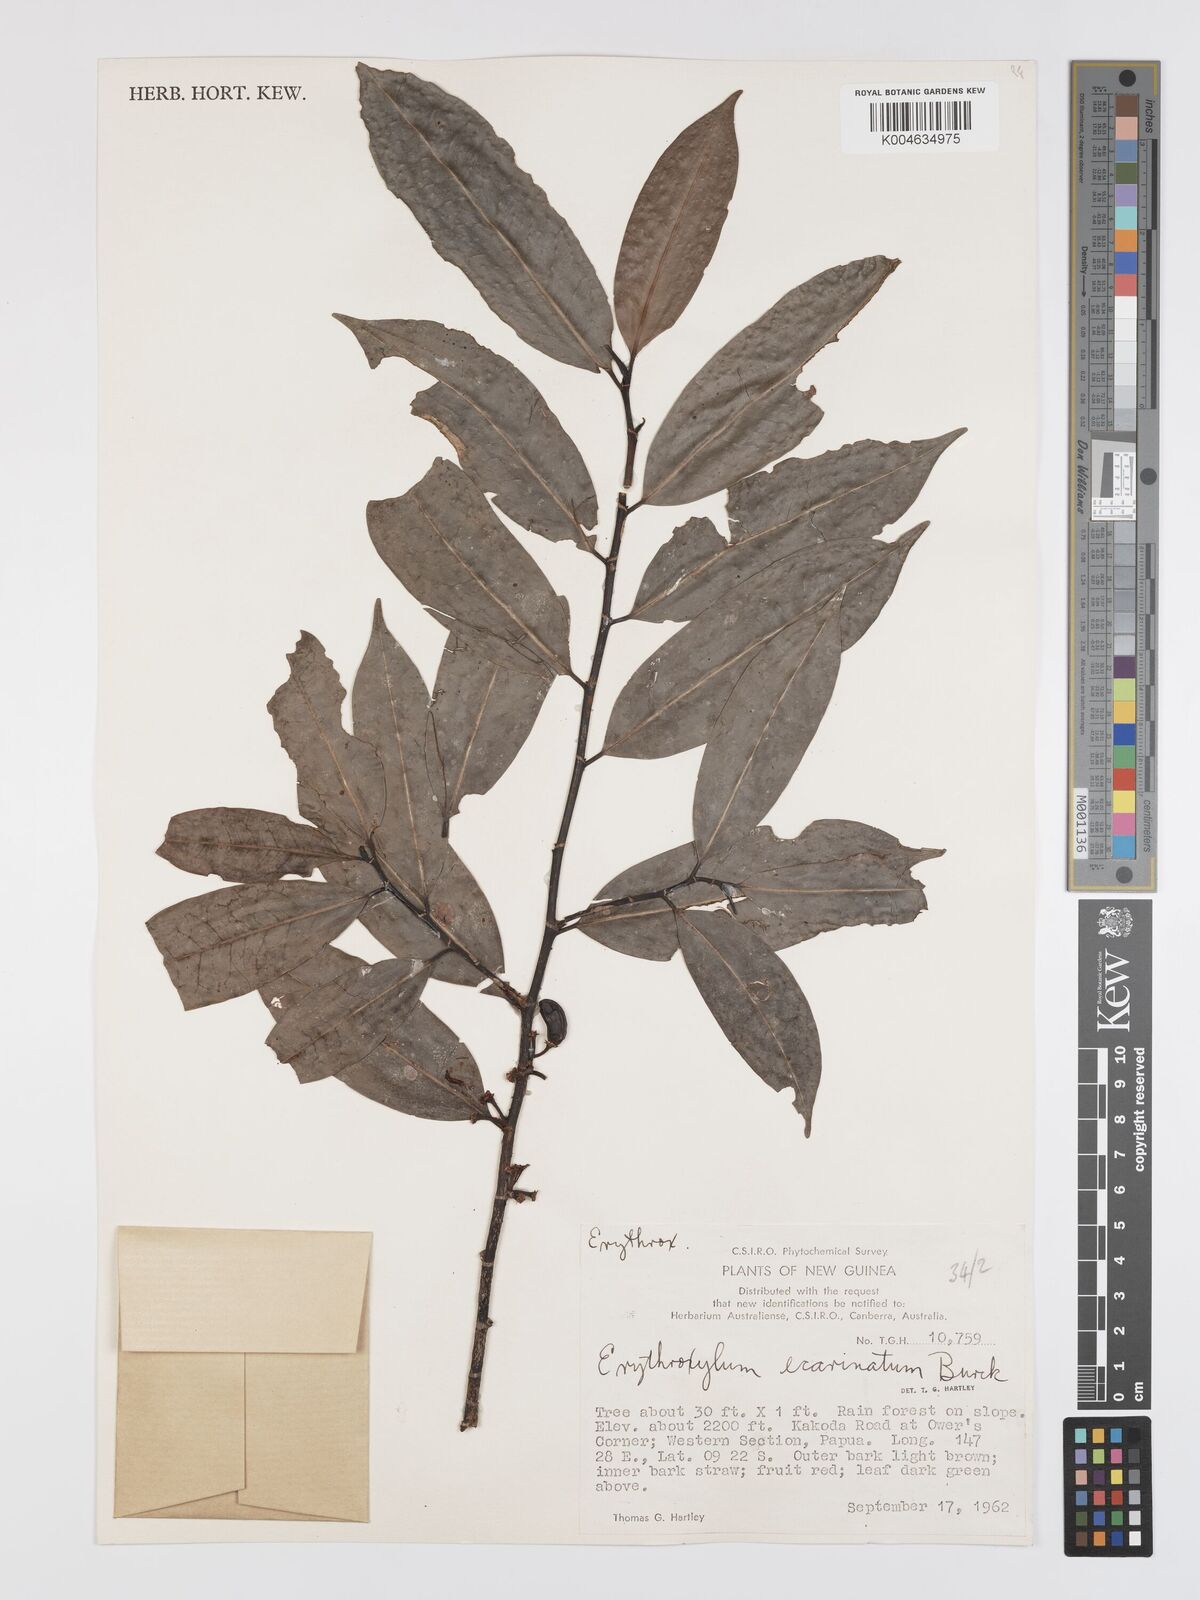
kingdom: Plantae
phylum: Tracheophyta
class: Magnoliopsida
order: Malpighiales
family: Erythroxylaceae
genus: Erythroxylum
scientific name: Erythroxylum ecarinatum
